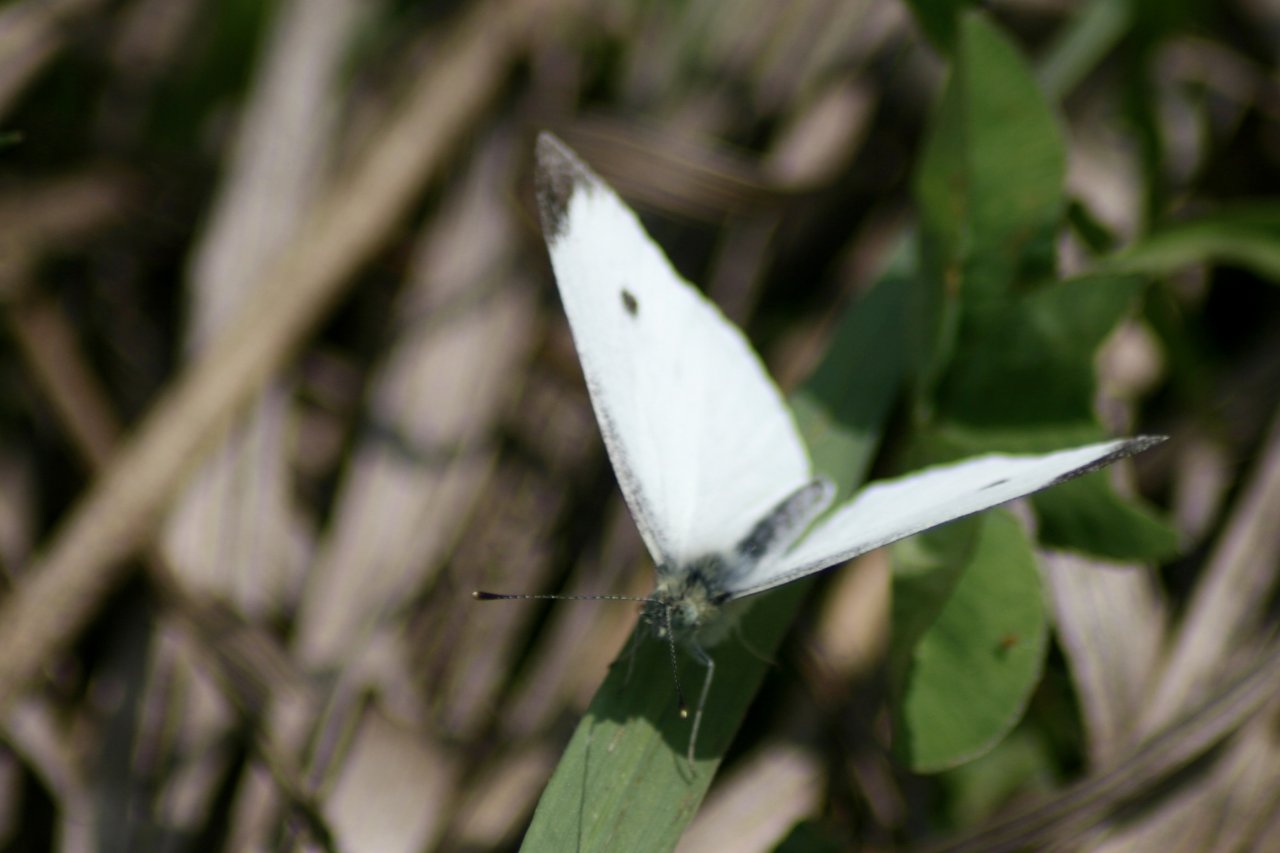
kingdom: Animalia
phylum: Arthropoda
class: Insecta
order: Lepidoptera
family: Pieridae
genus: Pieris
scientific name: Pieris rapae
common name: Cabbage White
